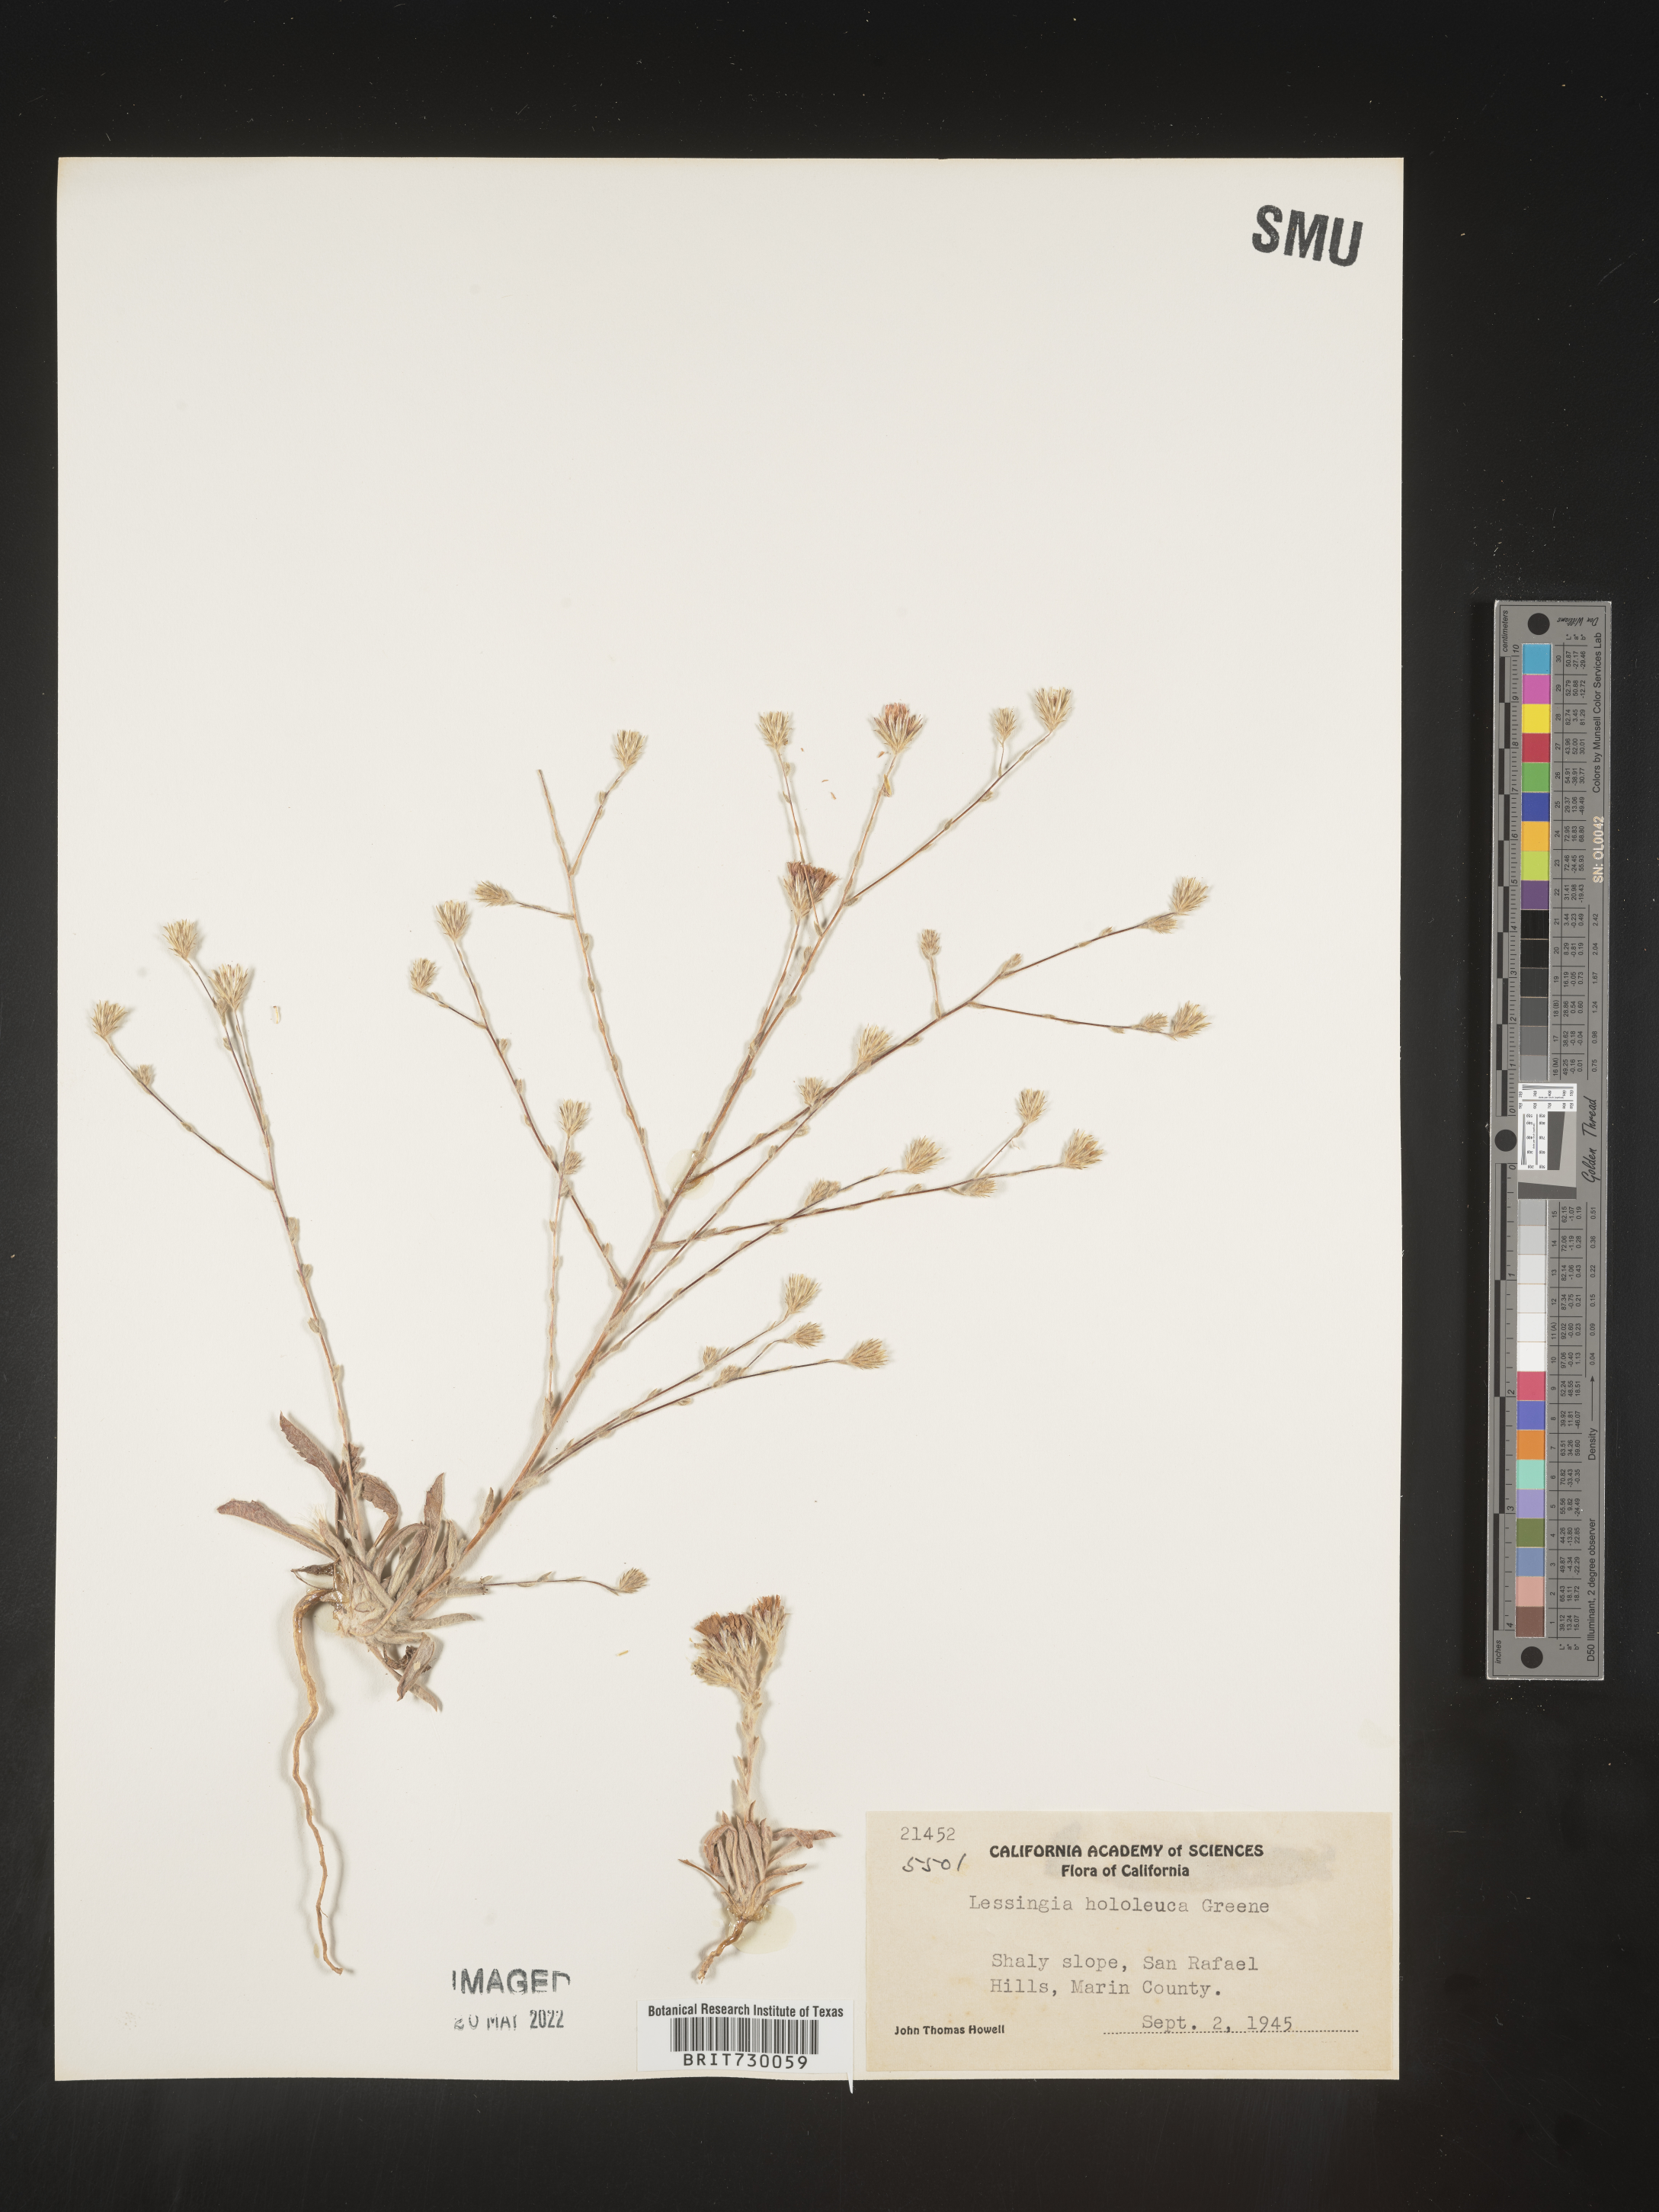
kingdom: Plantae
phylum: Tracheophyta
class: Magnoliopsida
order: Asterales
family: Asteraceae
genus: Lessingia
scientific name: Lessingia
